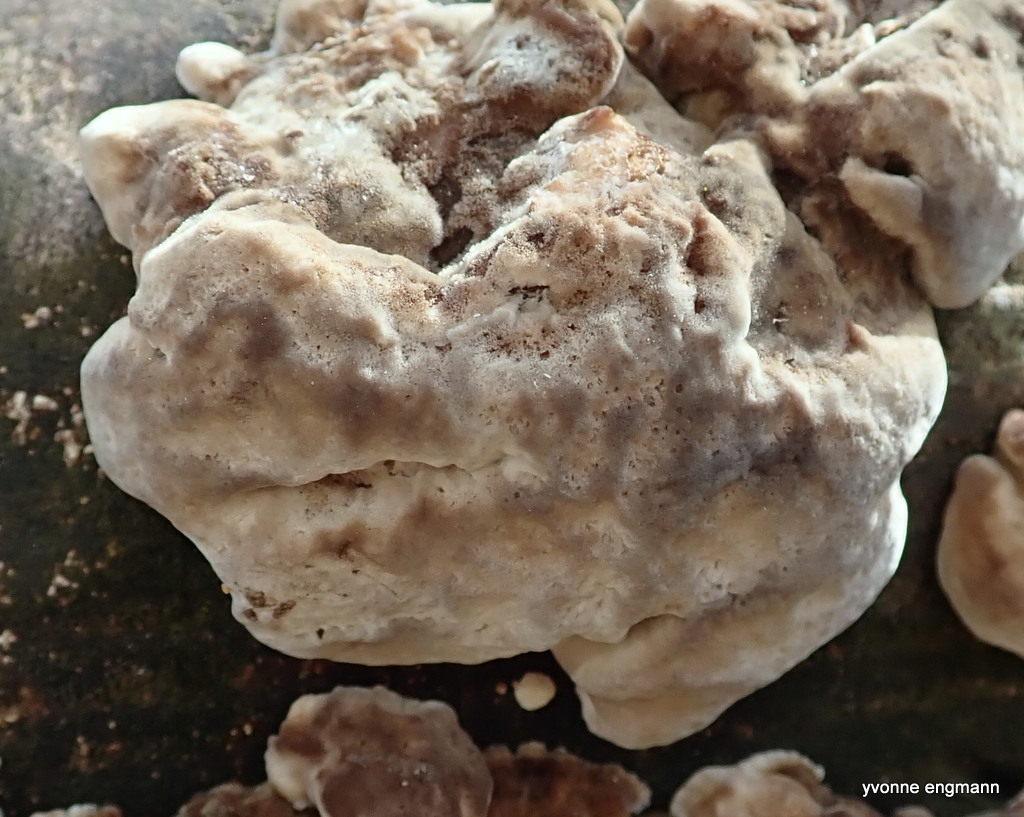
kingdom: Fungi
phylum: Basidiomycota
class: Agaricomycetes
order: Polyporales
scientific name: Polyporales
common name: poresvampordenen
